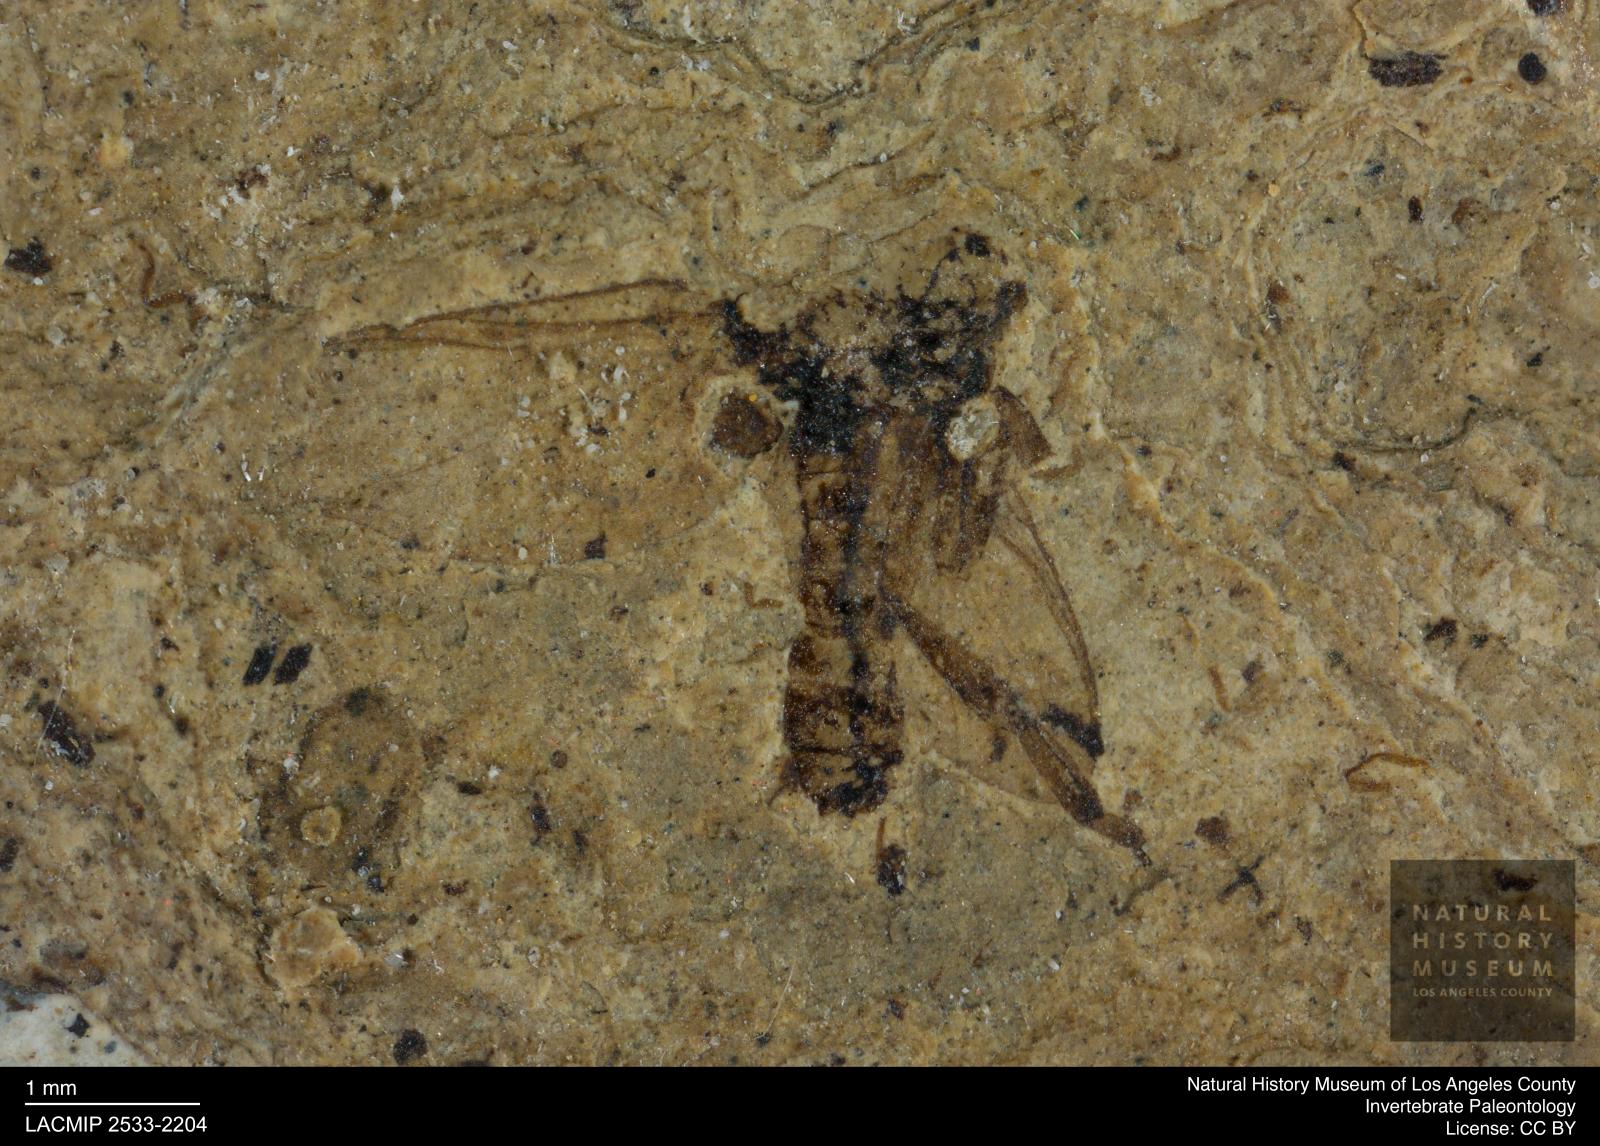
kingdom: Animalia
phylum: Arthropoda
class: Insecta
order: Diptera
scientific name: Diptera
